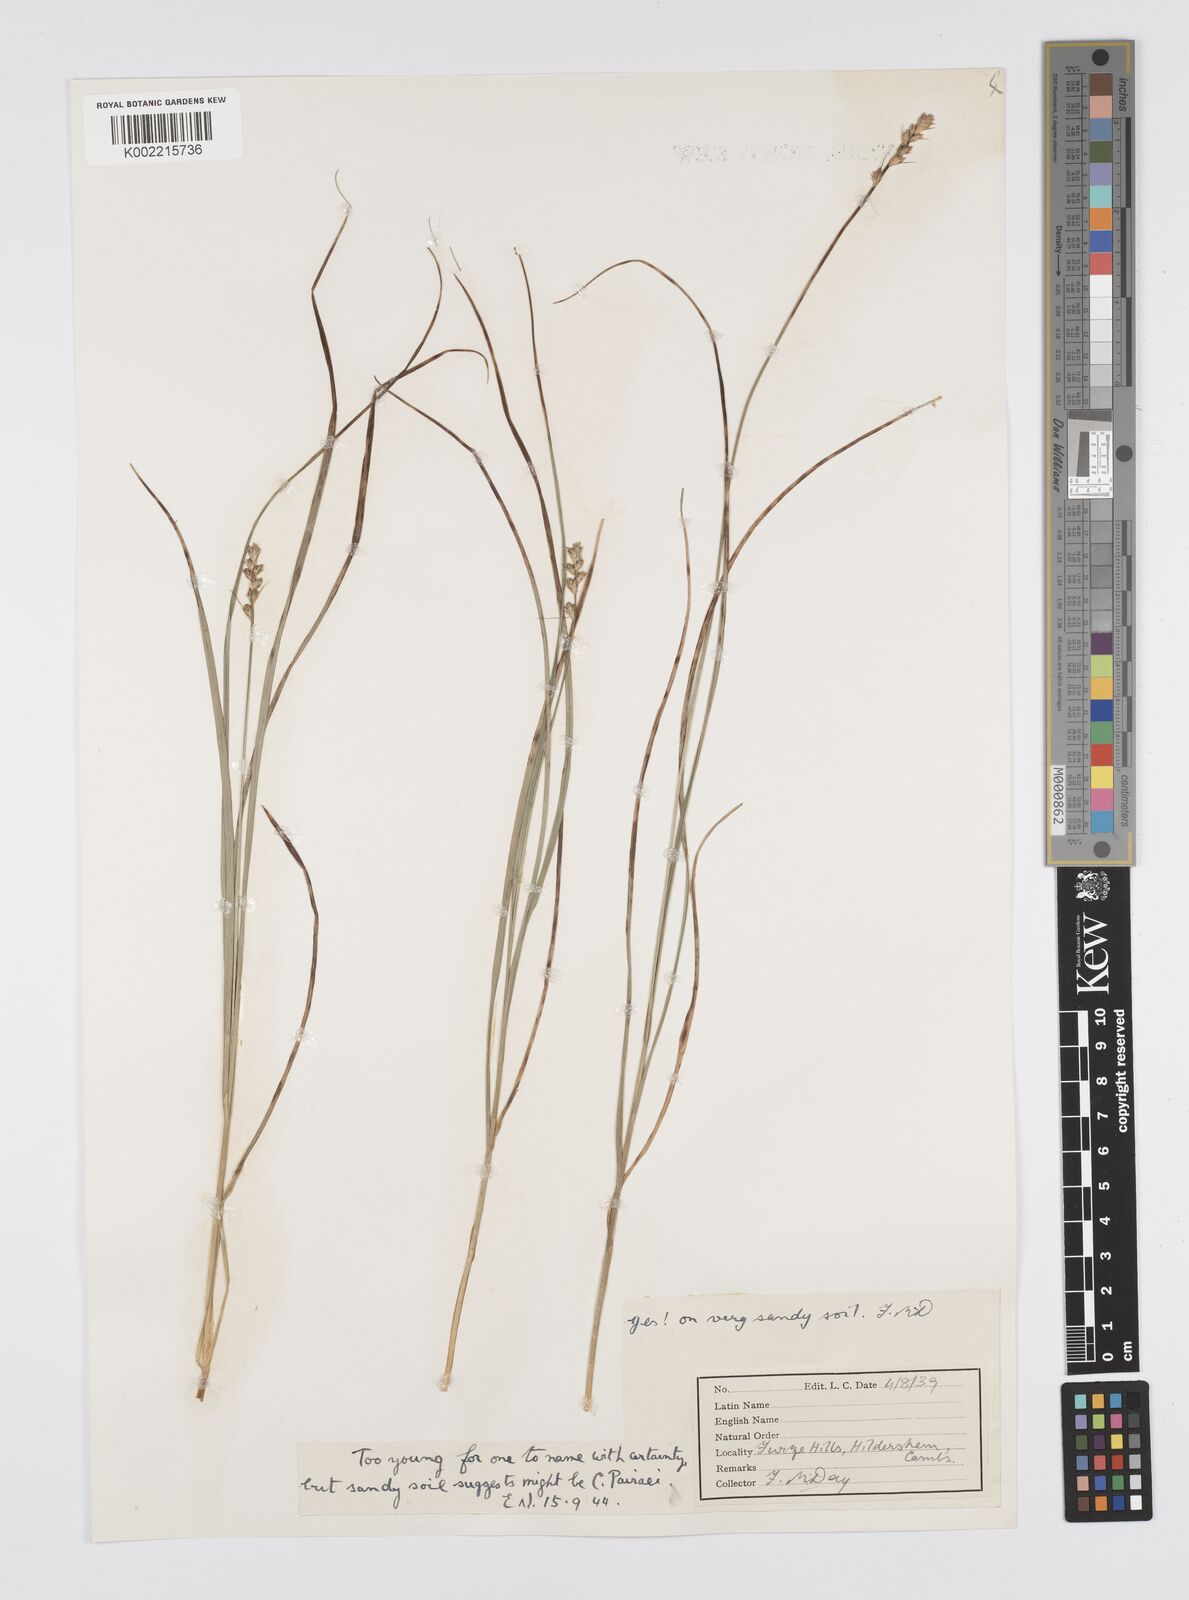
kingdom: Plantae
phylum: Tracheophyta
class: Liliopsida
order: Poales
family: Cyperaceae
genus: Carex
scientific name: Carex
